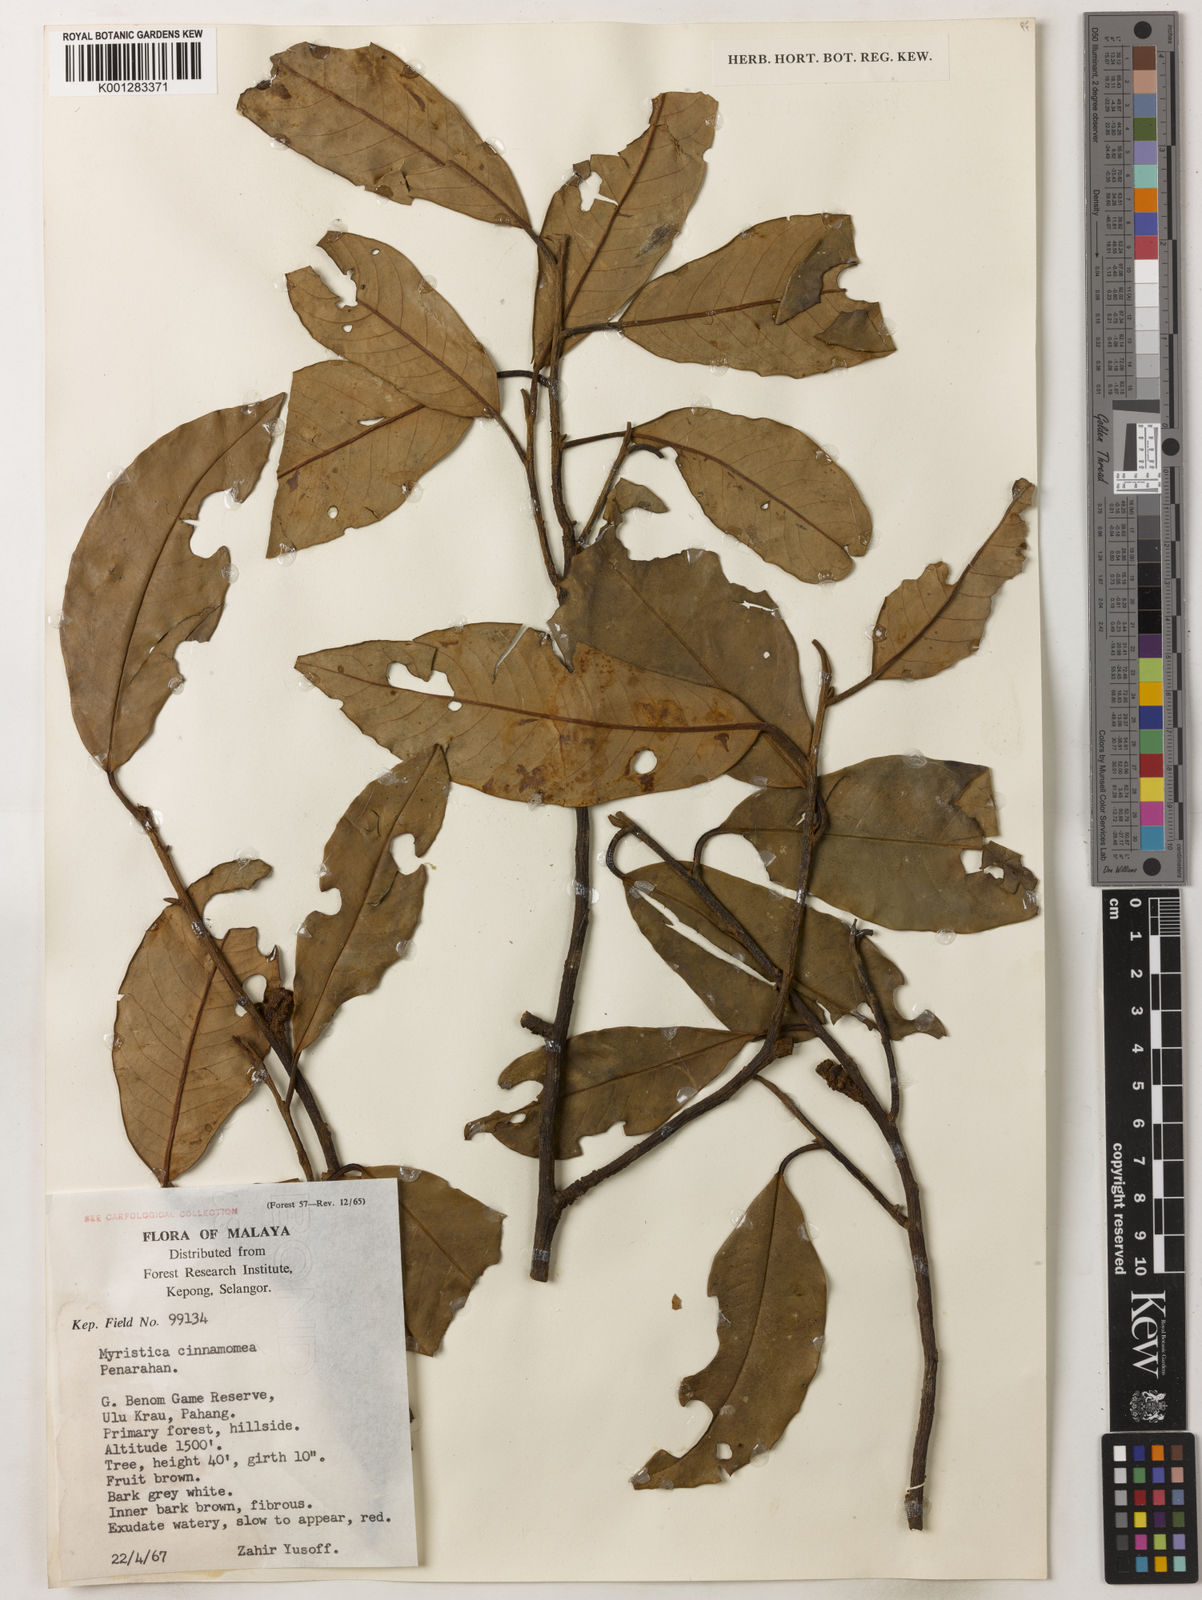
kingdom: Plantae
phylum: Tracheophyta
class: Magnoliopsida
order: Magnoliales
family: Myristicaceae
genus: Myristica
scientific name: Myristica cinnamomea
